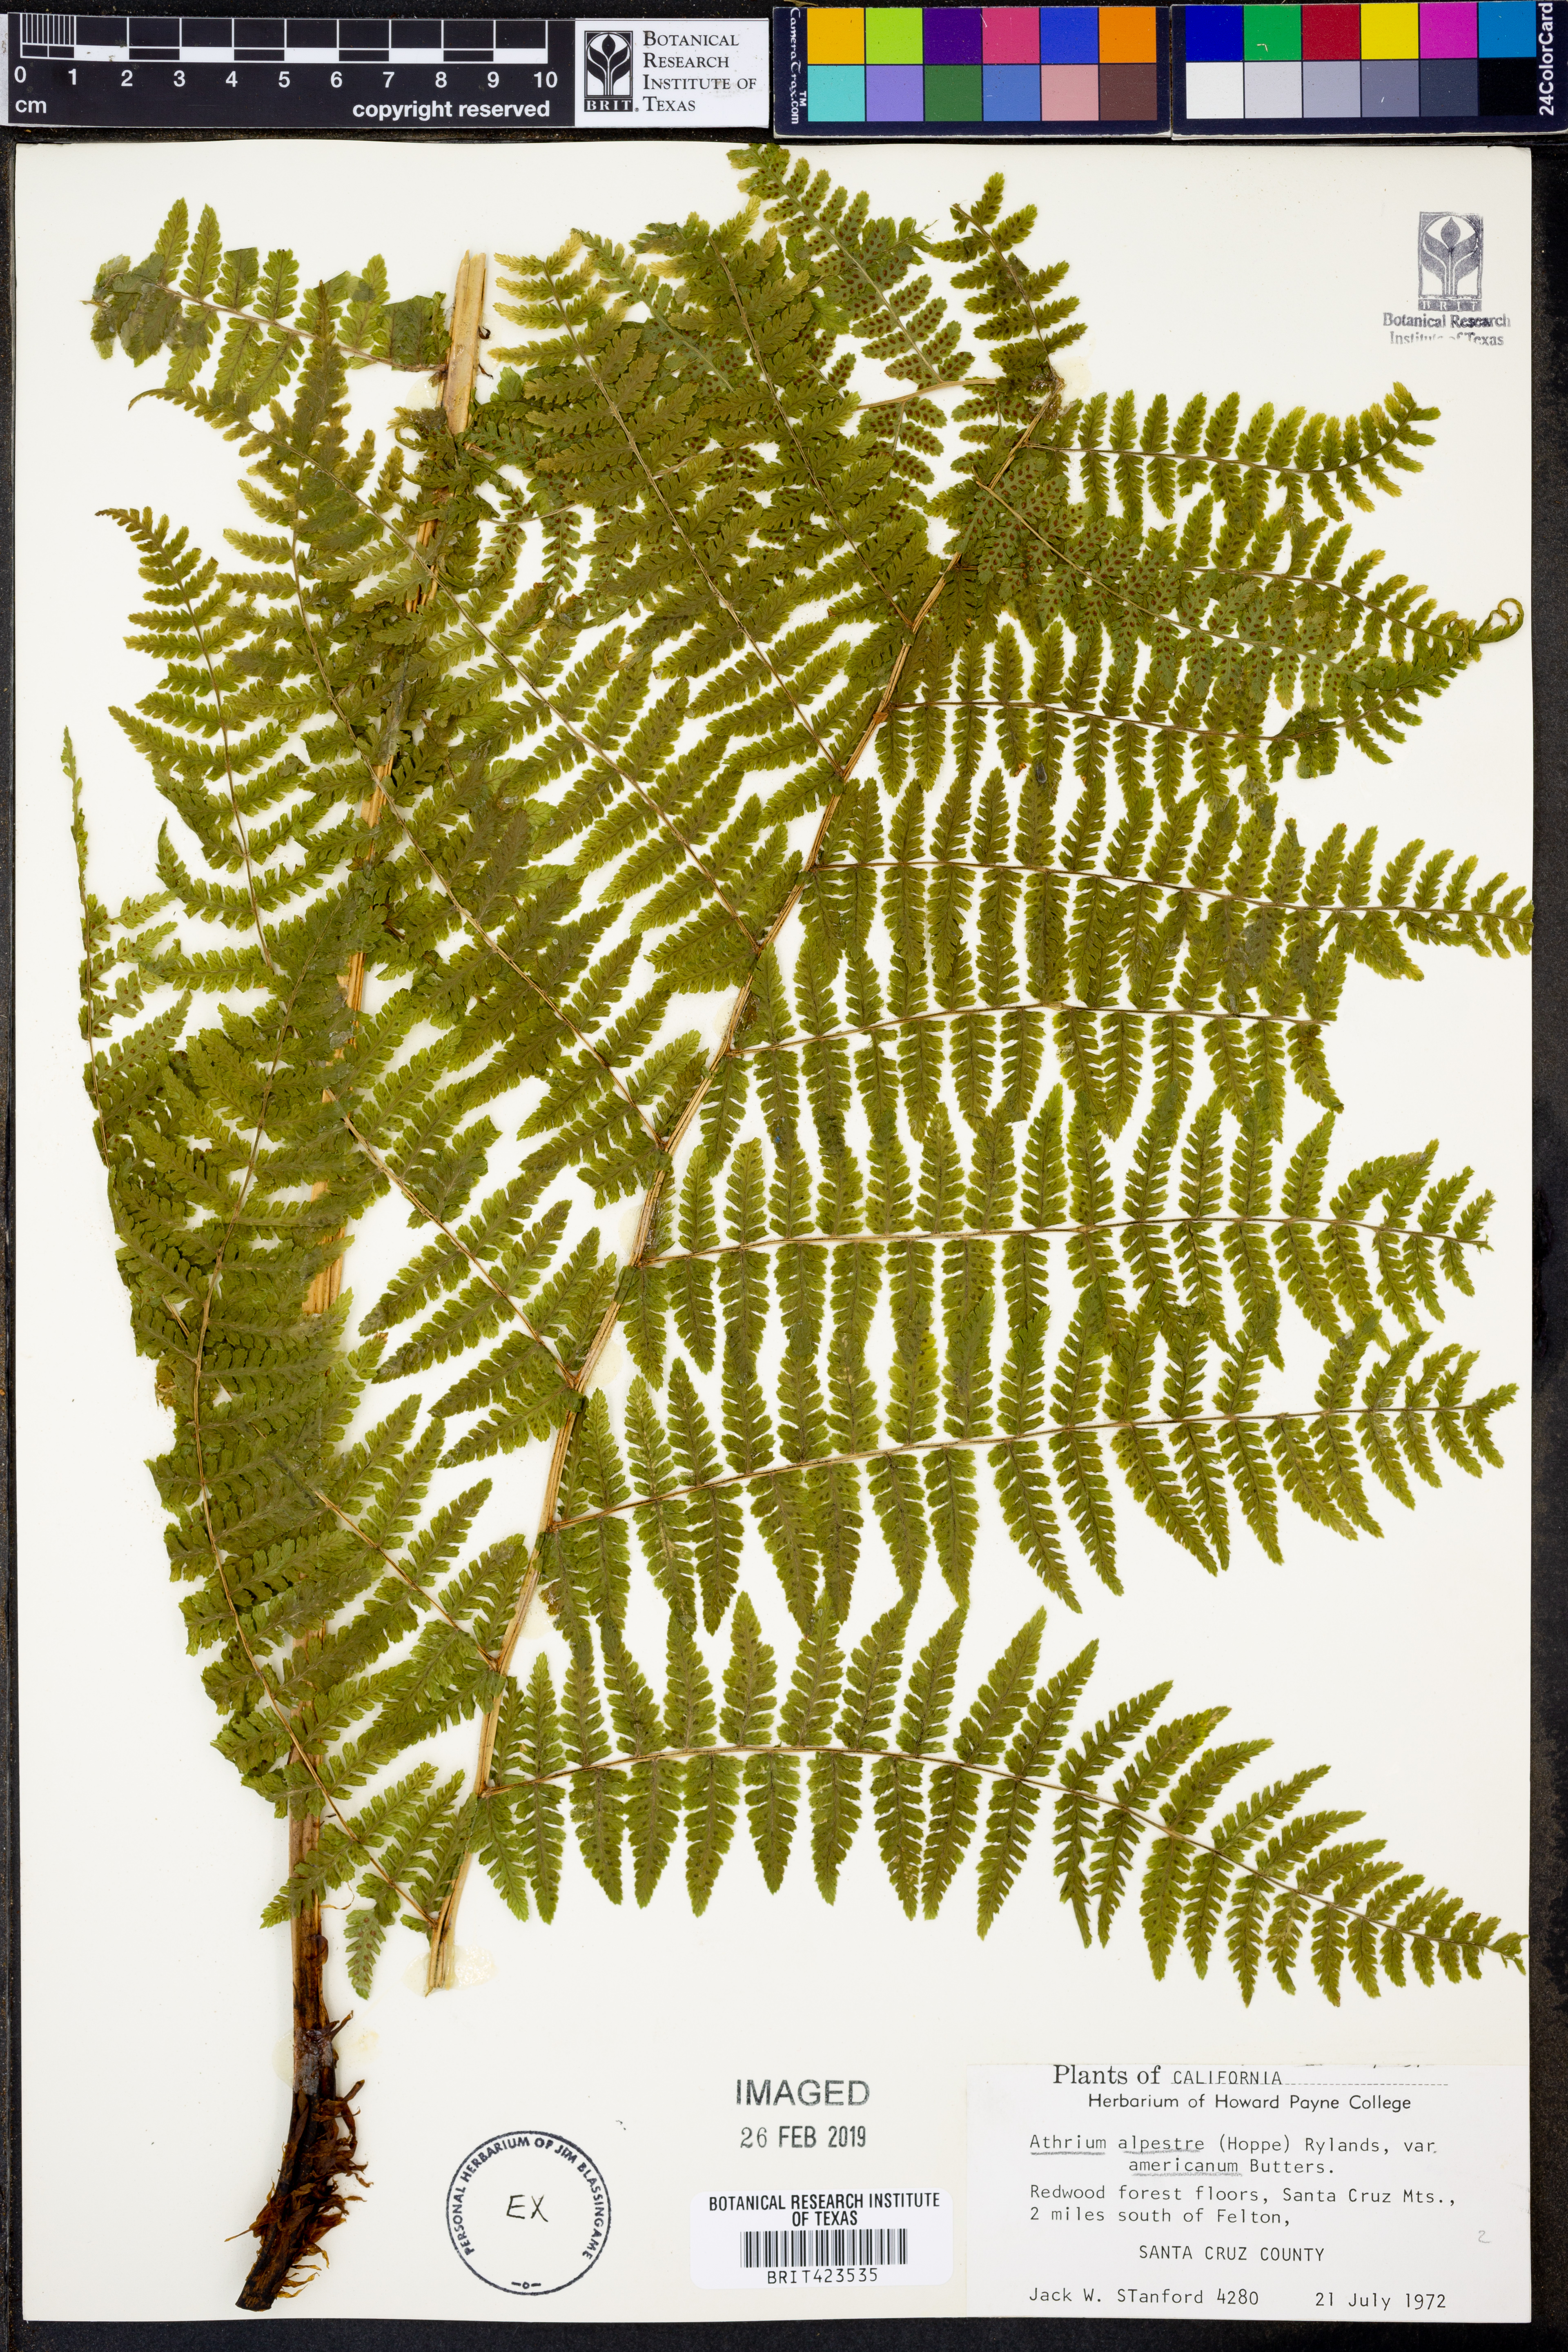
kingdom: Plantae
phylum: Tracheophyta
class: Polypodiopsida
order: Polypodiales
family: Athyriaceae
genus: Athyrium
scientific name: Athyrium americanum
